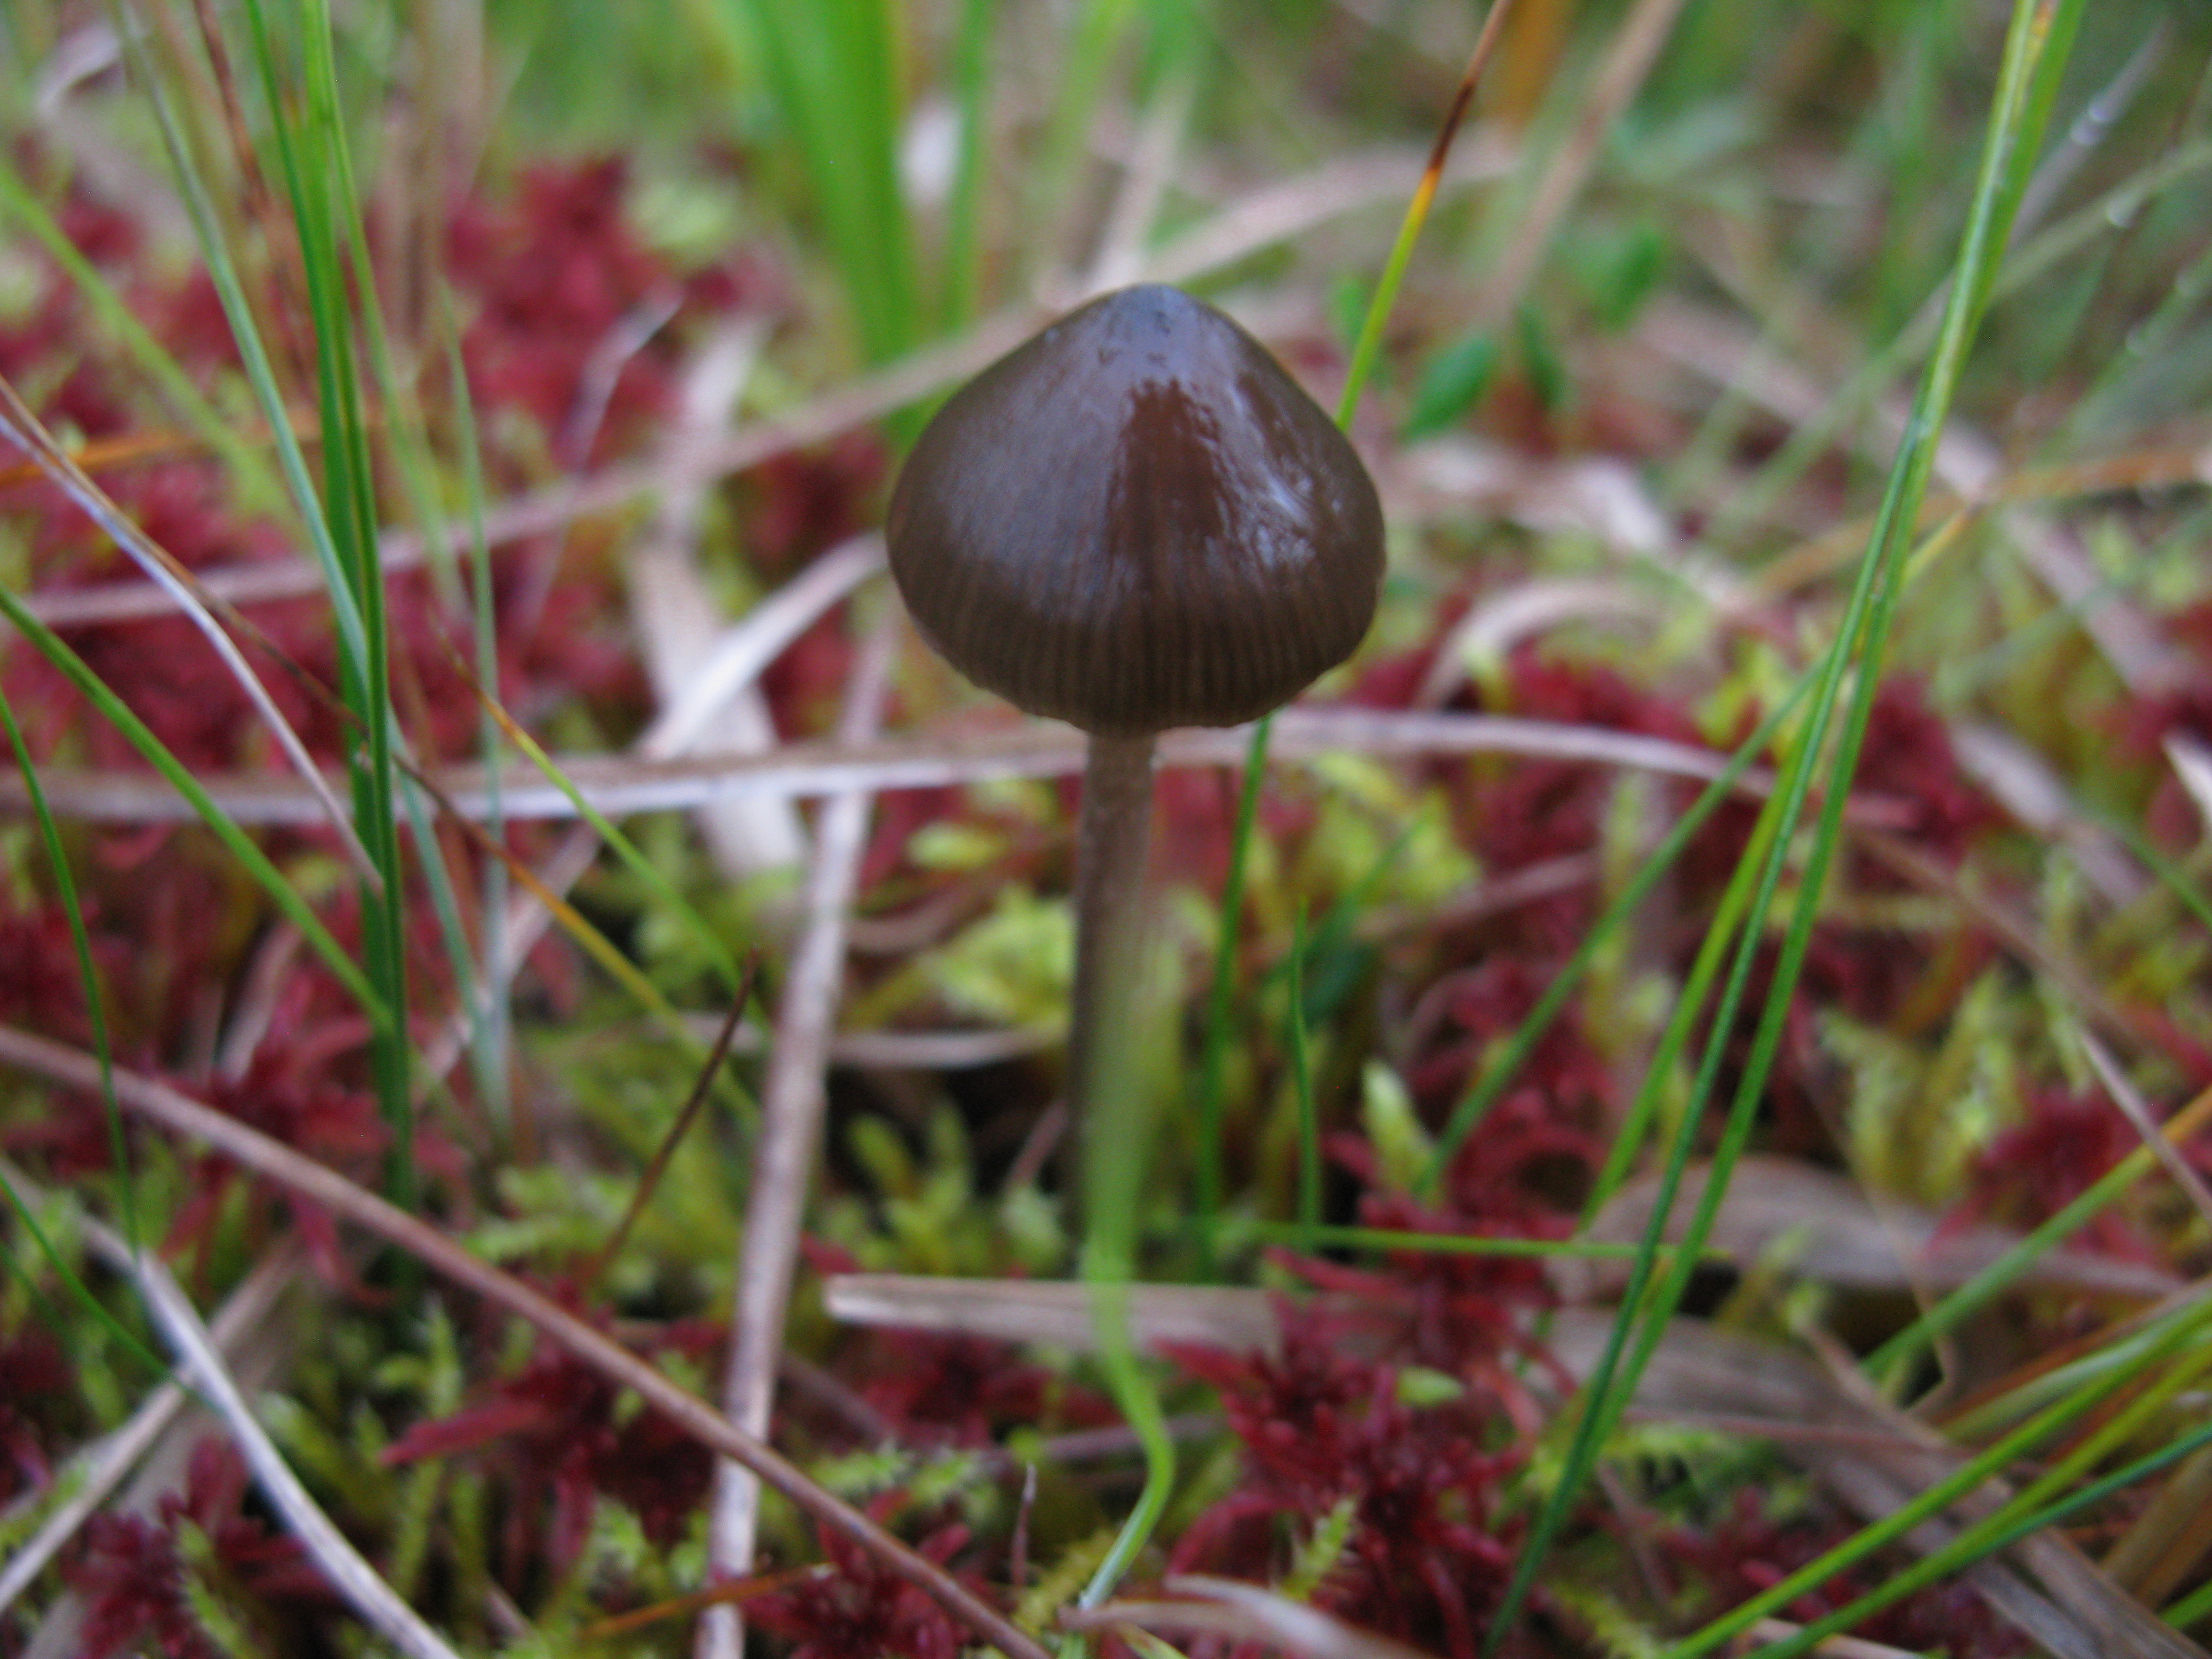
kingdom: Fungi
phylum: Basidiomycota
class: Agaricomycetes
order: Agaricales
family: Entolomataceae
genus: Entoloma
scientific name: Entoloma cuspidiferum
